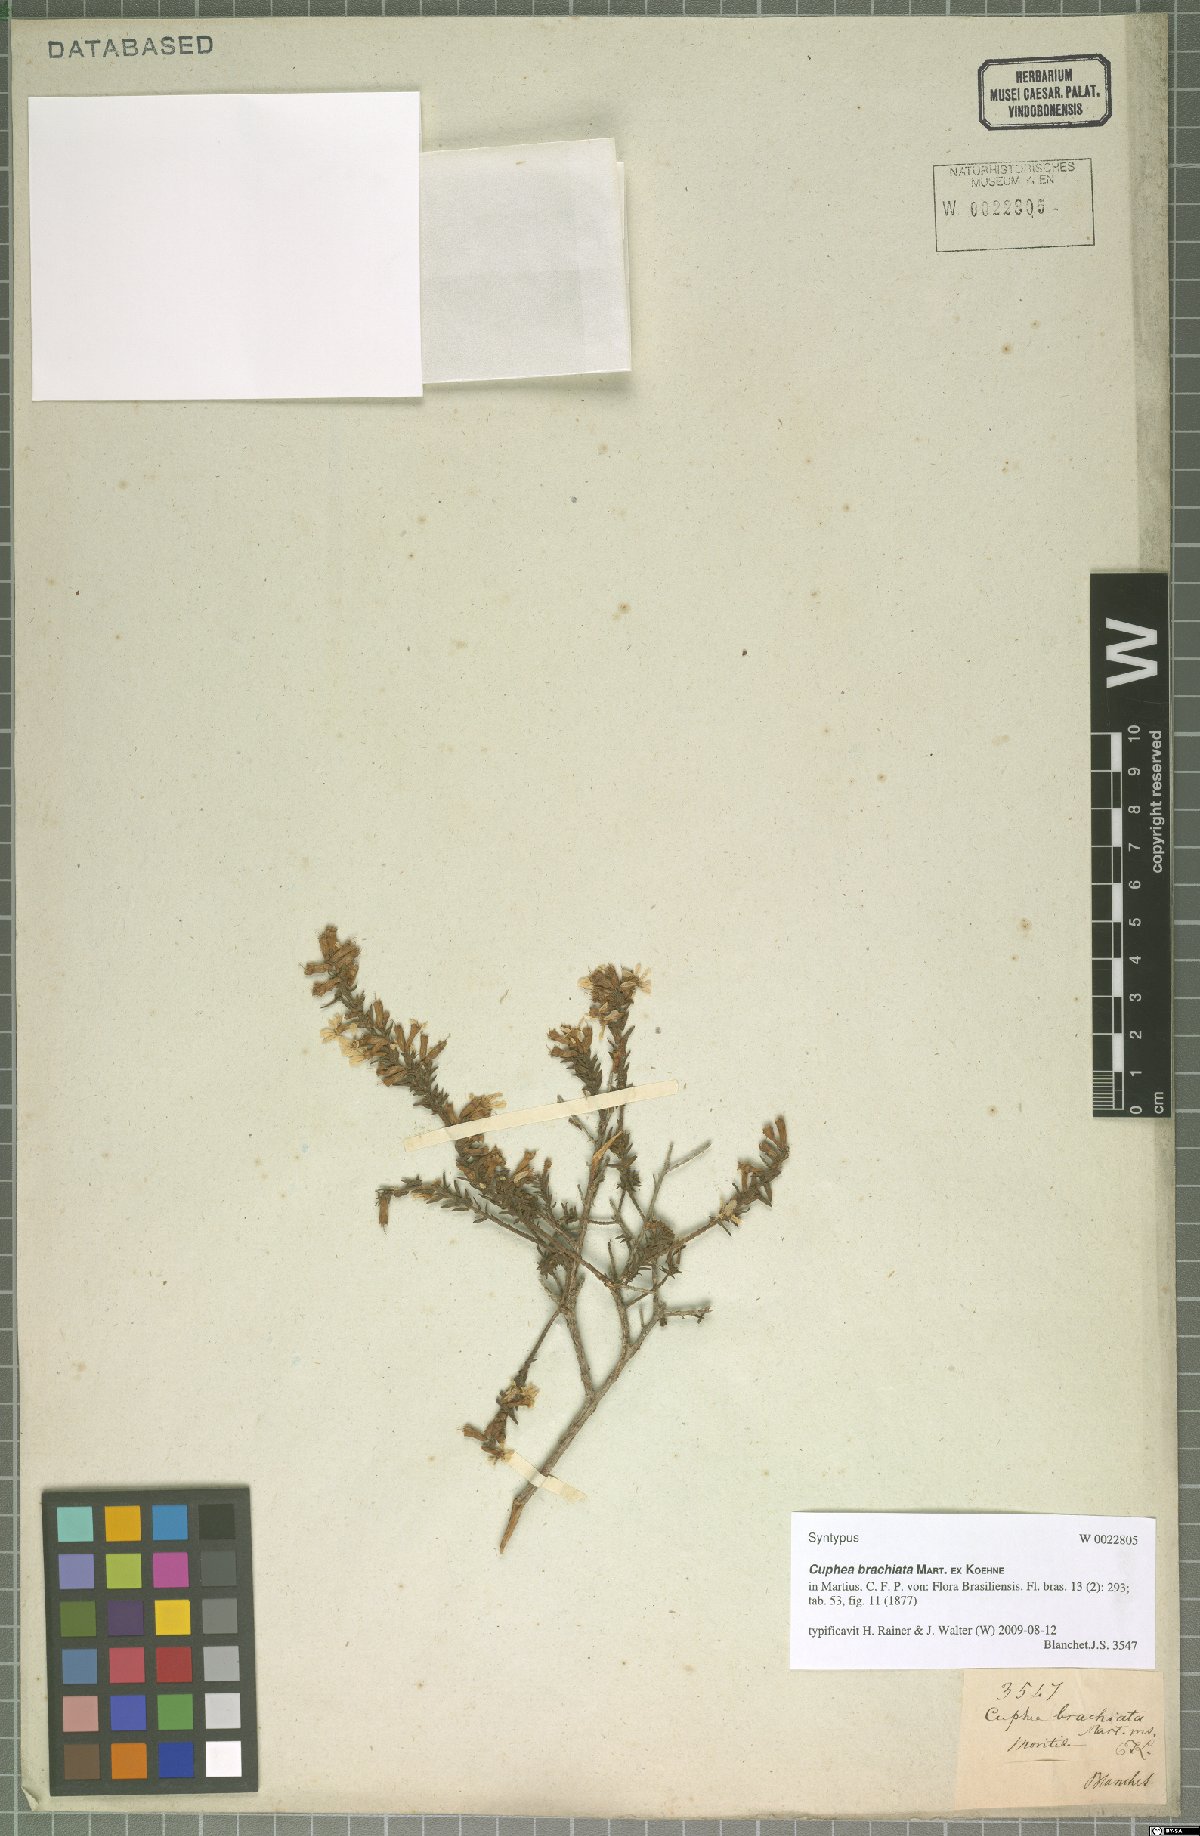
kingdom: Plantae
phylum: Tracheophyta
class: Magnoliopsida
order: Myrtales
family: Lythraceae
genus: Cuphea
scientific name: Cuphea brachiata
